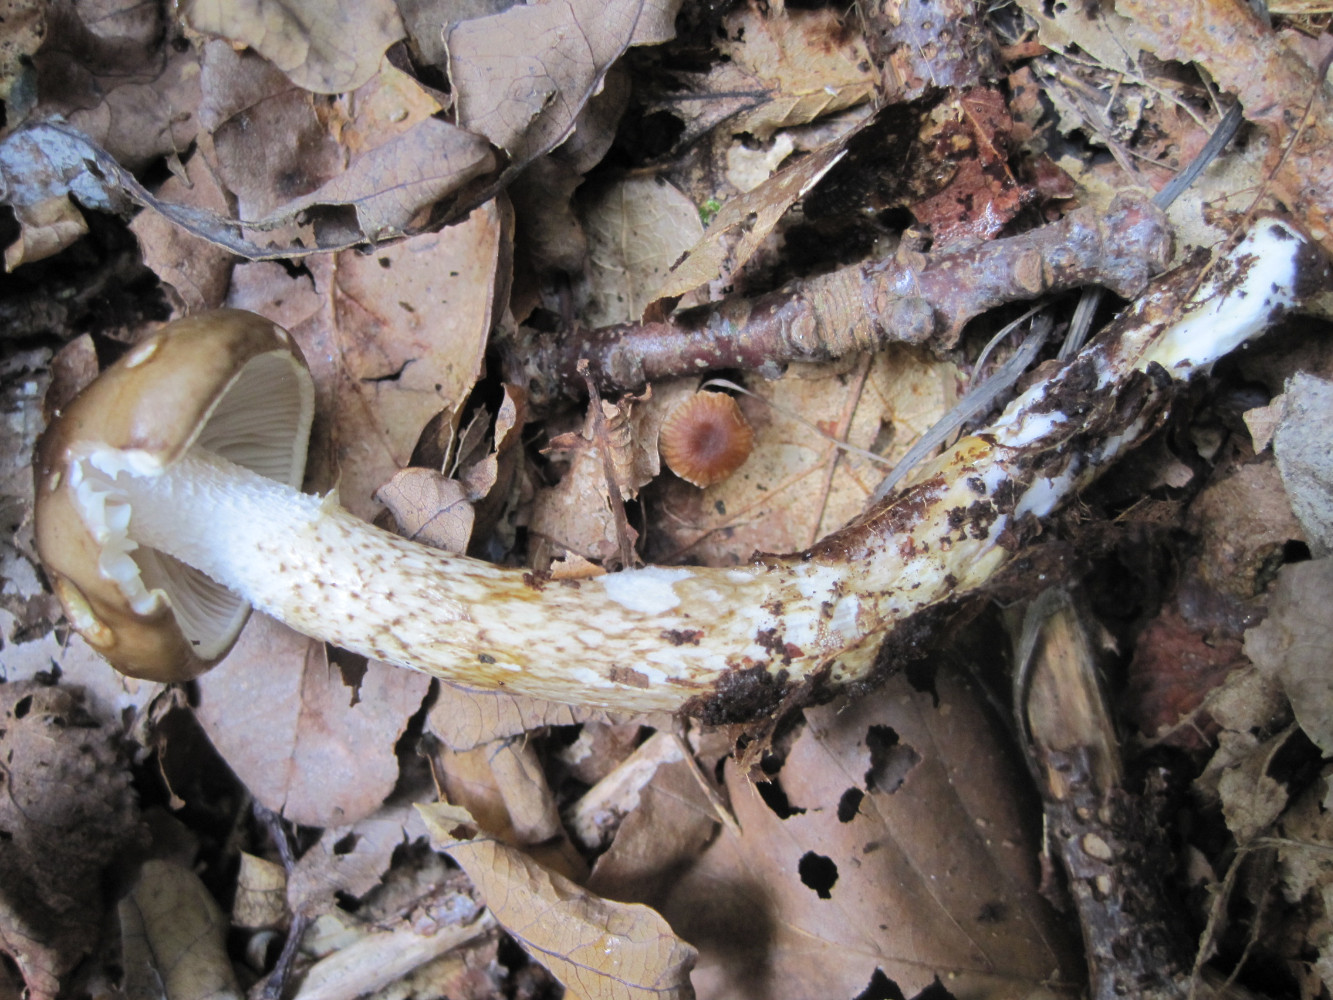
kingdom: Fungi
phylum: Basidiomycota
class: Agaricomycetes
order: Agaricales
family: Hygrophoraceae
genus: Hygrophorus
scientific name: Hygrophorus olivaceoalbus
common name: hvidbrun sneglehat
